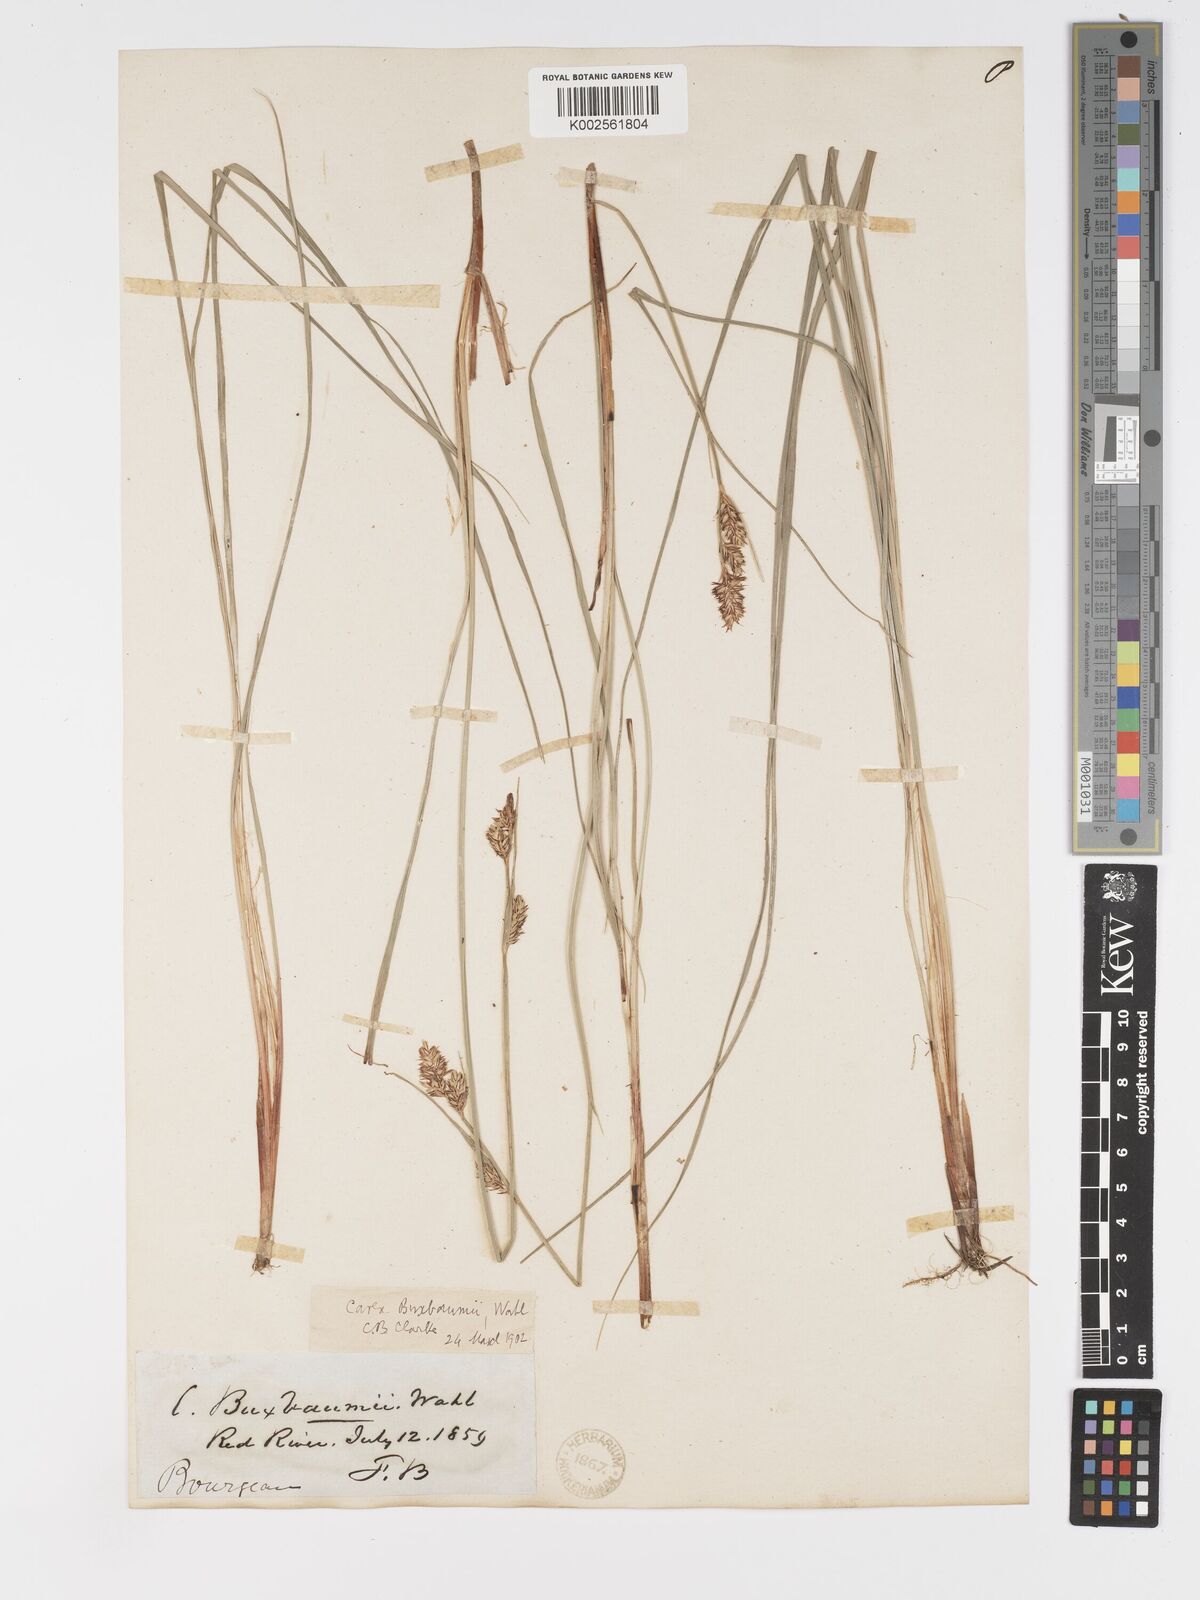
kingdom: Plantae
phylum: Tracheophyta
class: Liliopsida
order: Poales
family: Cyperaceae
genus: Carex
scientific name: Carex buxbaumii
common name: Club sedge
